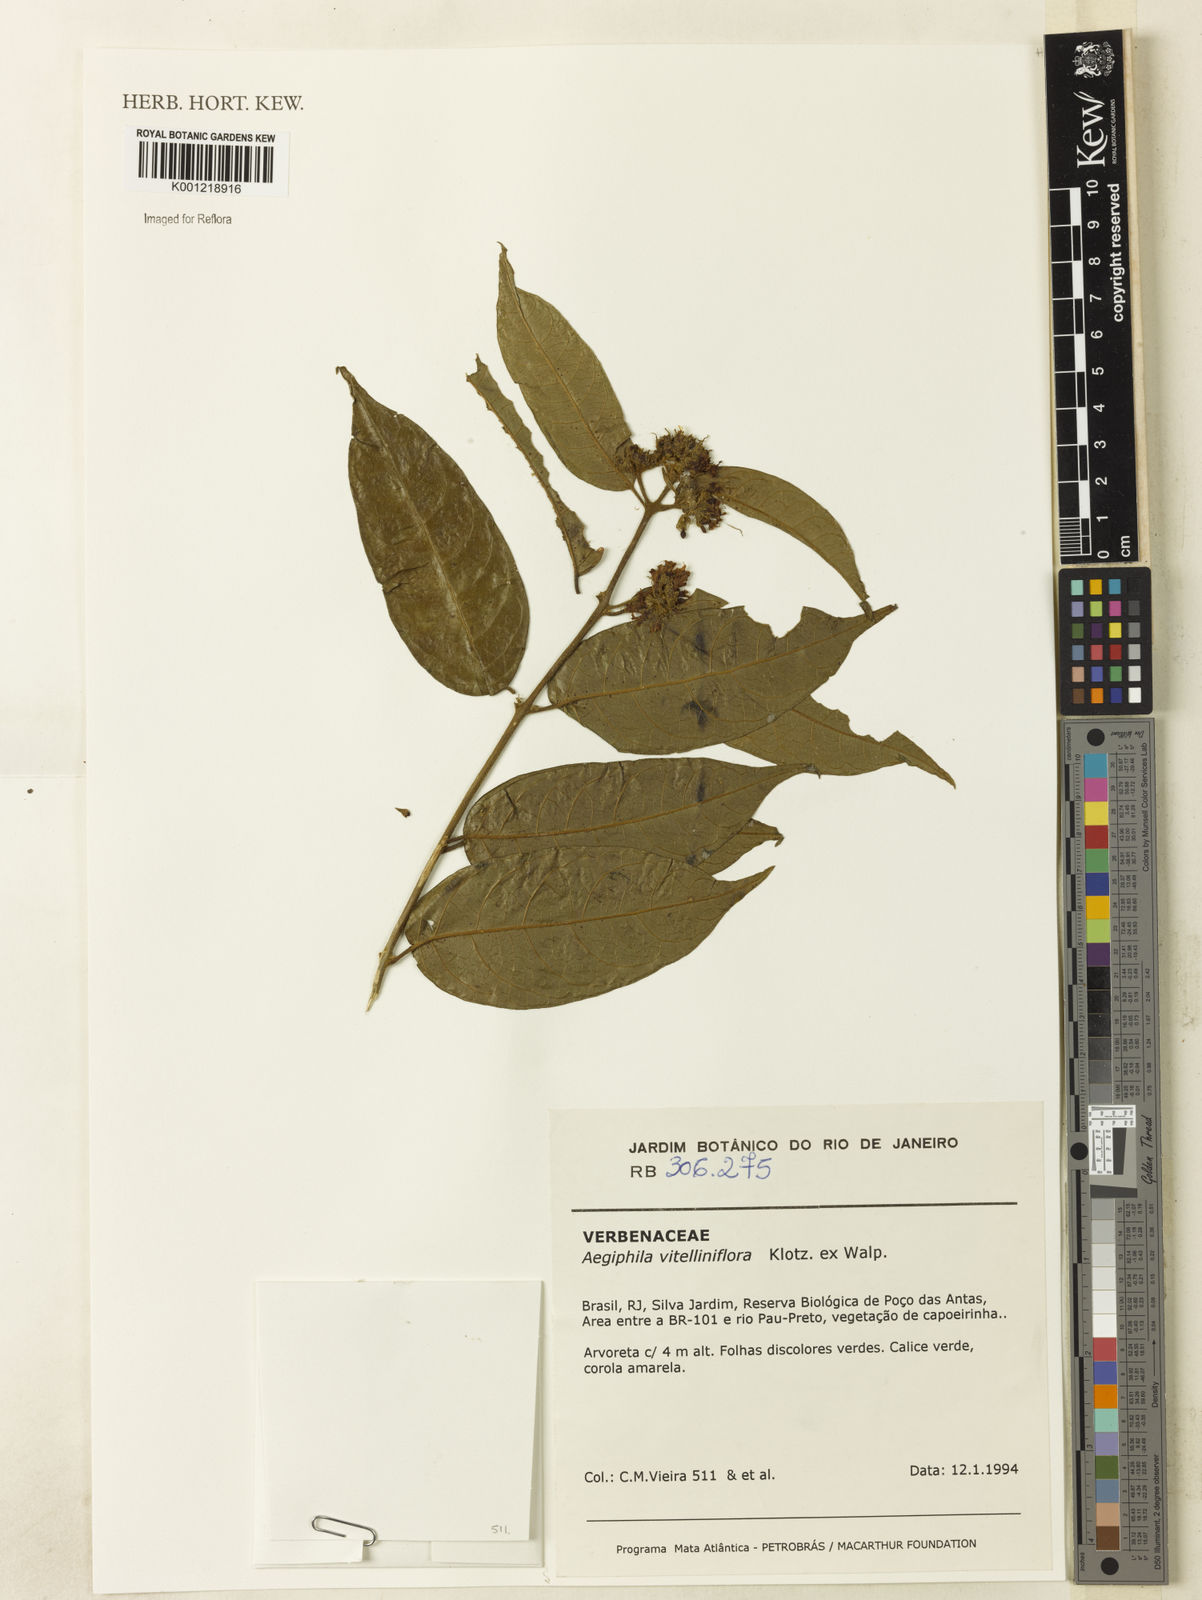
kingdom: Plantae
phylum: Tracheophyta
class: Magnoliopsida
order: Lamiales
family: Lamiaceae
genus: Aegiphila
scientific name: Aegiphila
